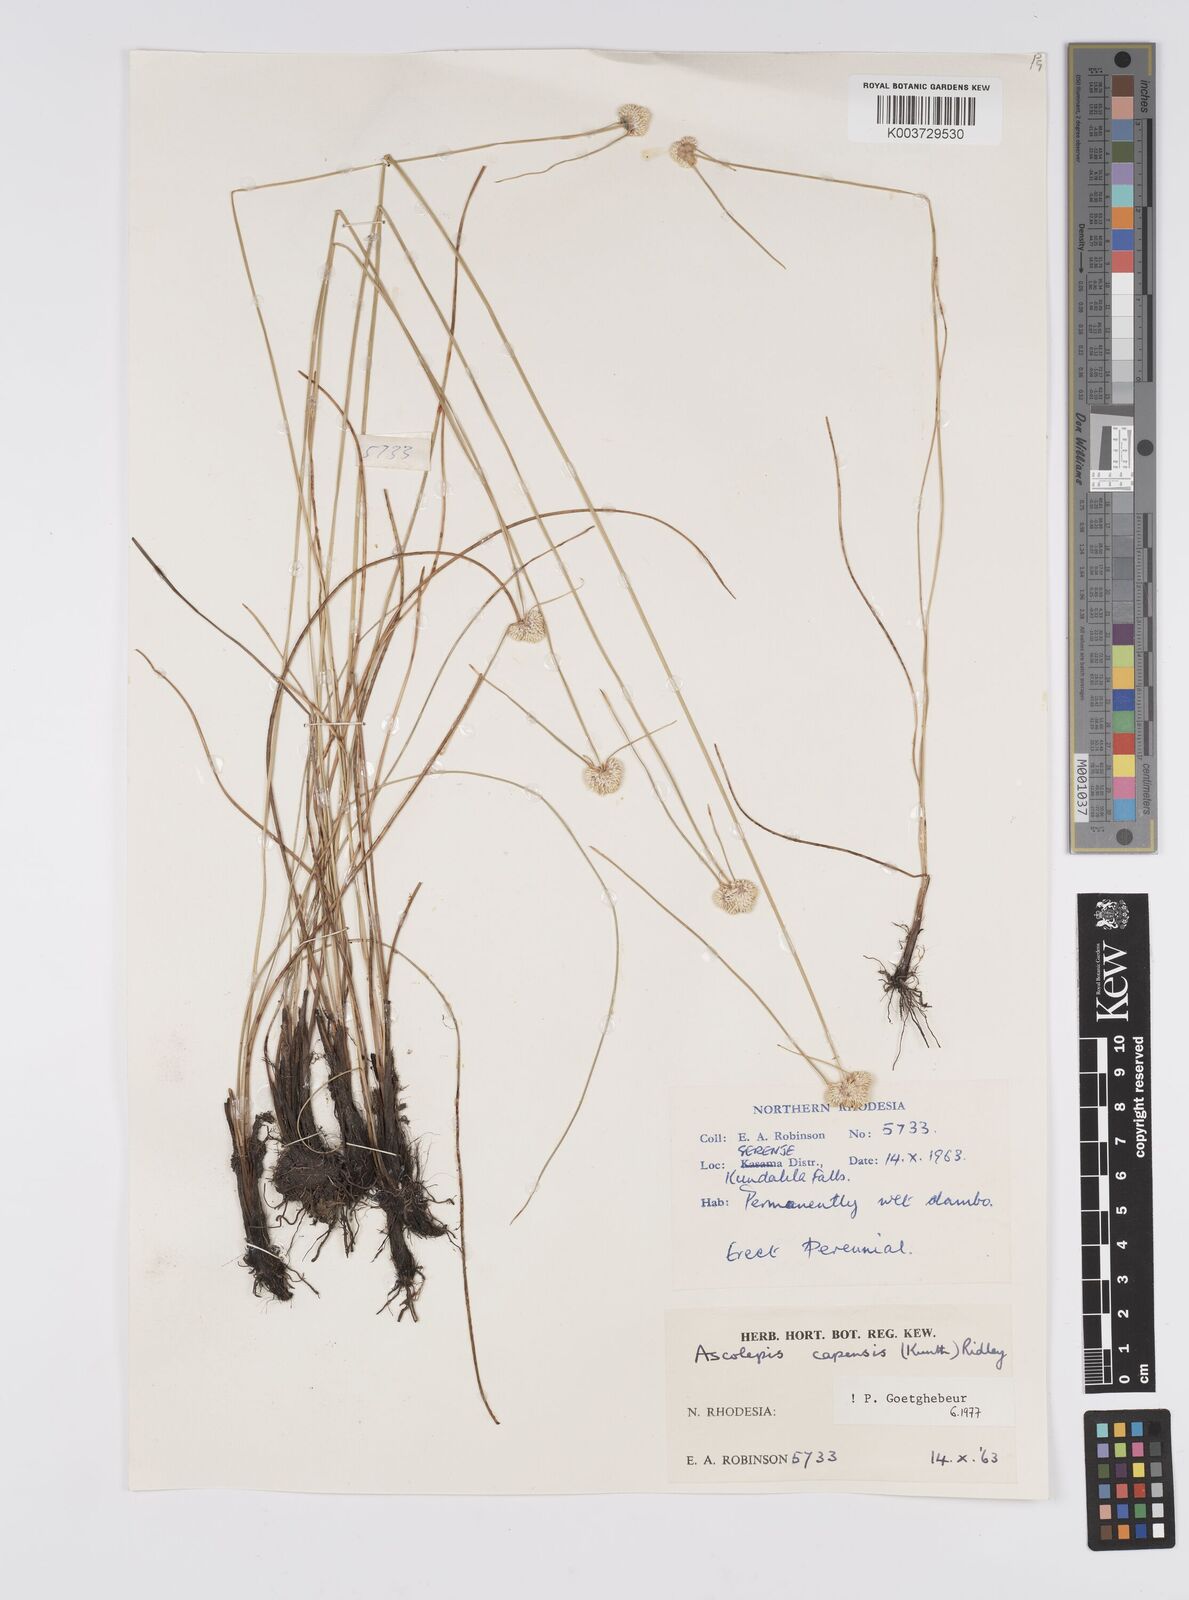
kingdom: Plantae
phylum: Tracheophyta
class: Liliopsida
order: Poales
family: Cyperaceae
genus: Cyperus
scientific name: Cyperus
